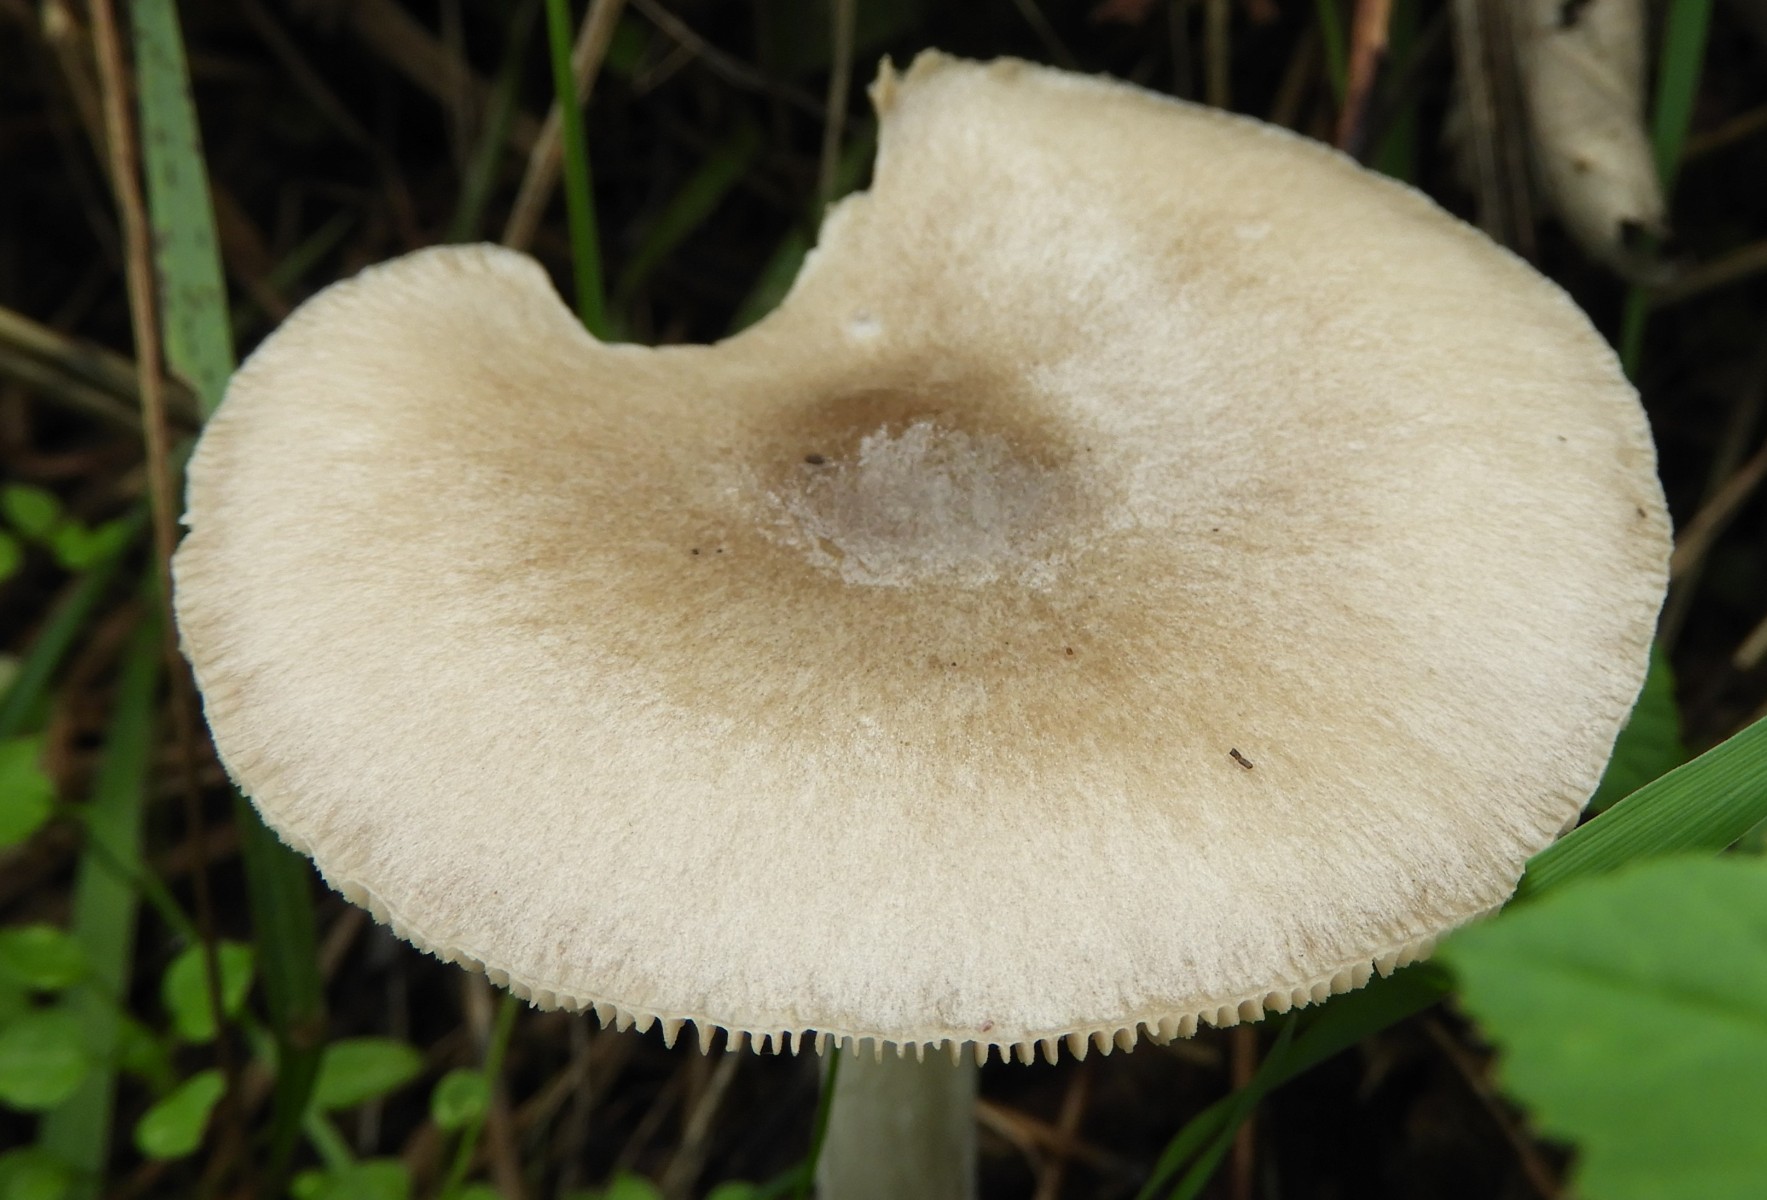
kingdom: Fungi
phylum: Basidiomycota
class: Agaricomycetes
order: Agaricales
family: Pluteaceae
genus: Volvopluteus
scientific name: Volvopluteus gloiocephalus
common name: høj posesvamp
